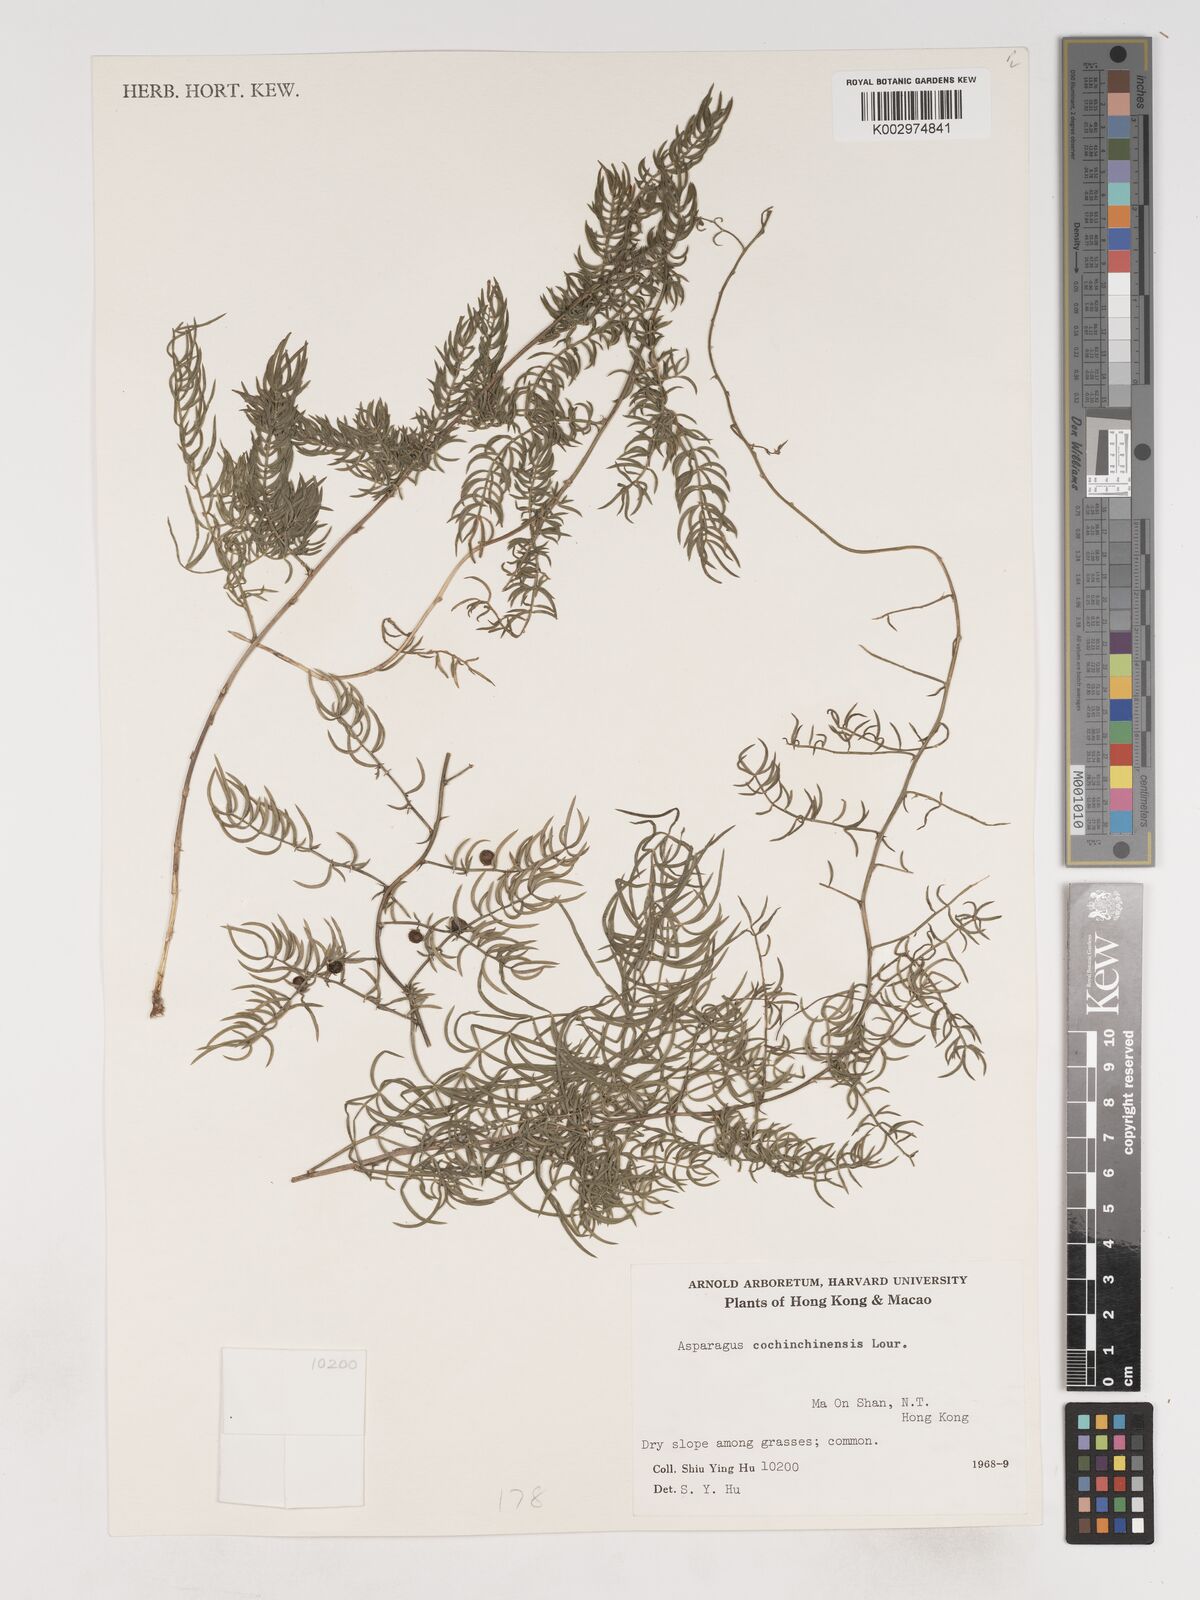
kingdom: Plantae
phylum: Tracheophyta
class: Liliopsida
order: Asparagales
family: Asparagaceae
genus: Asparagus
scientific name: Asparagus cochinchinensis
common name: Chinese asparagus
